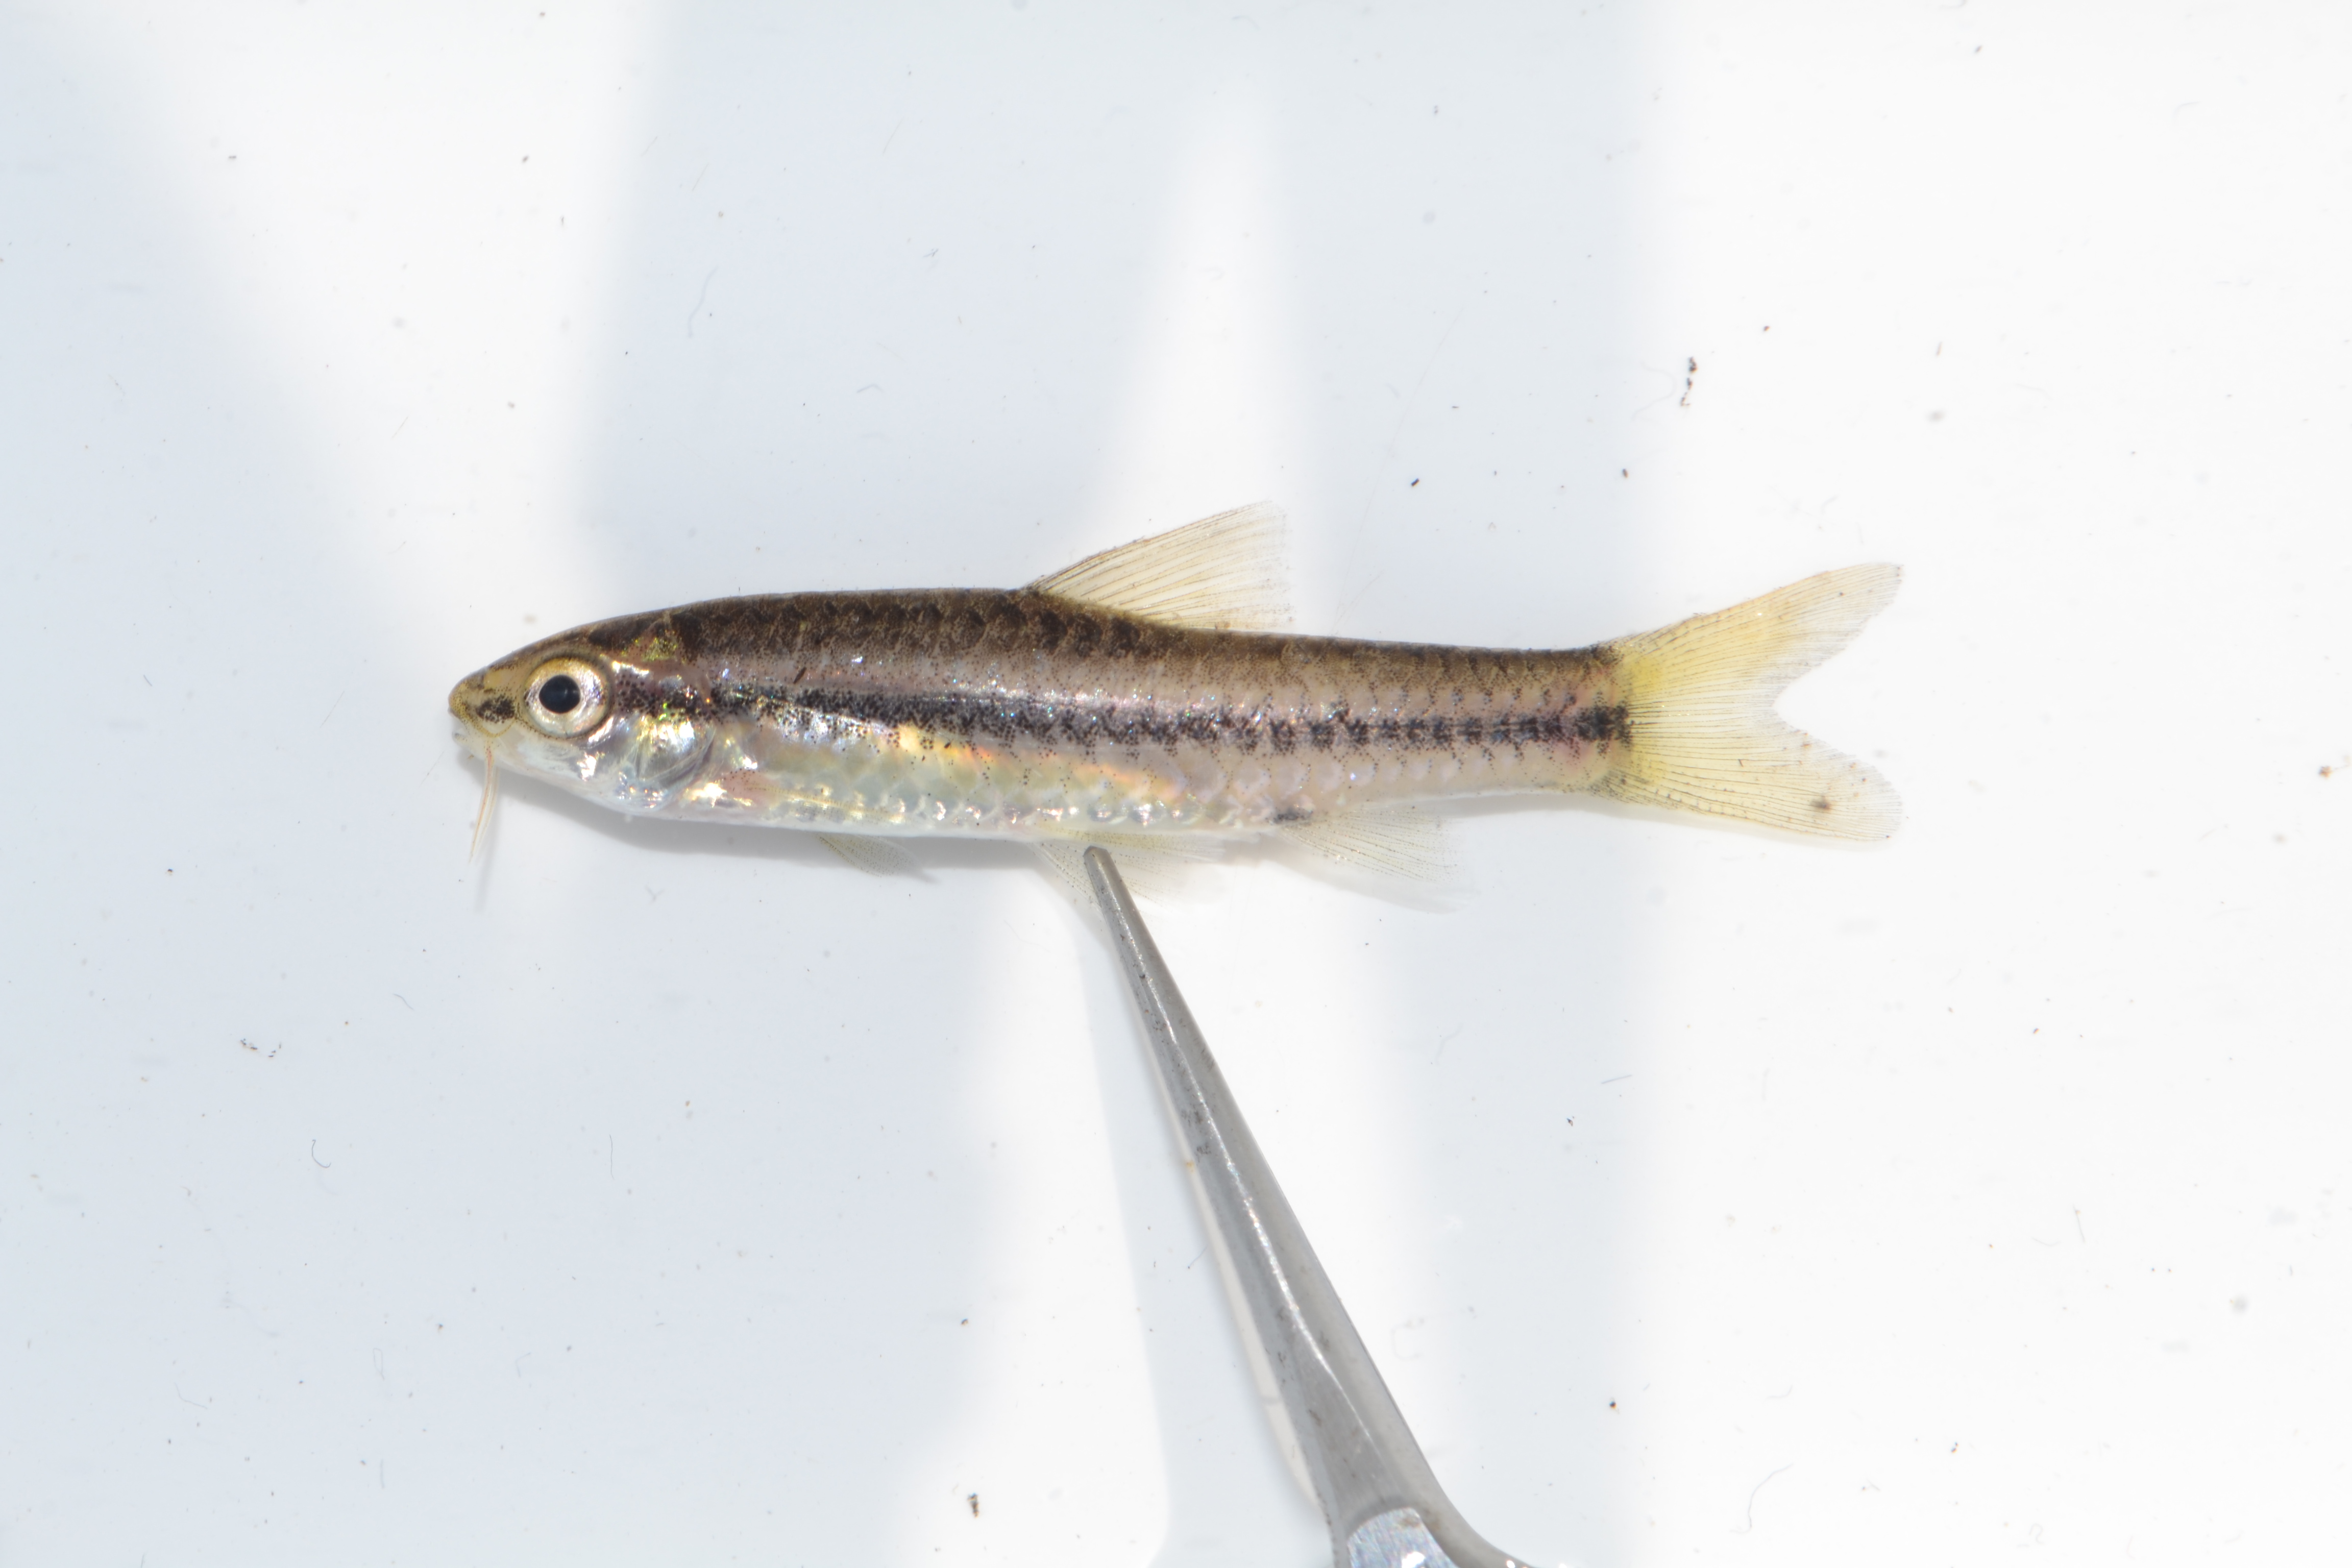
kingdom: Animalia
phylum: Chordata
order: Cypriniformes
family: Cyprinidae
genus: Enteromius
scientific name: Enteromius thamalakanensis
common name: Thamalakane barb
